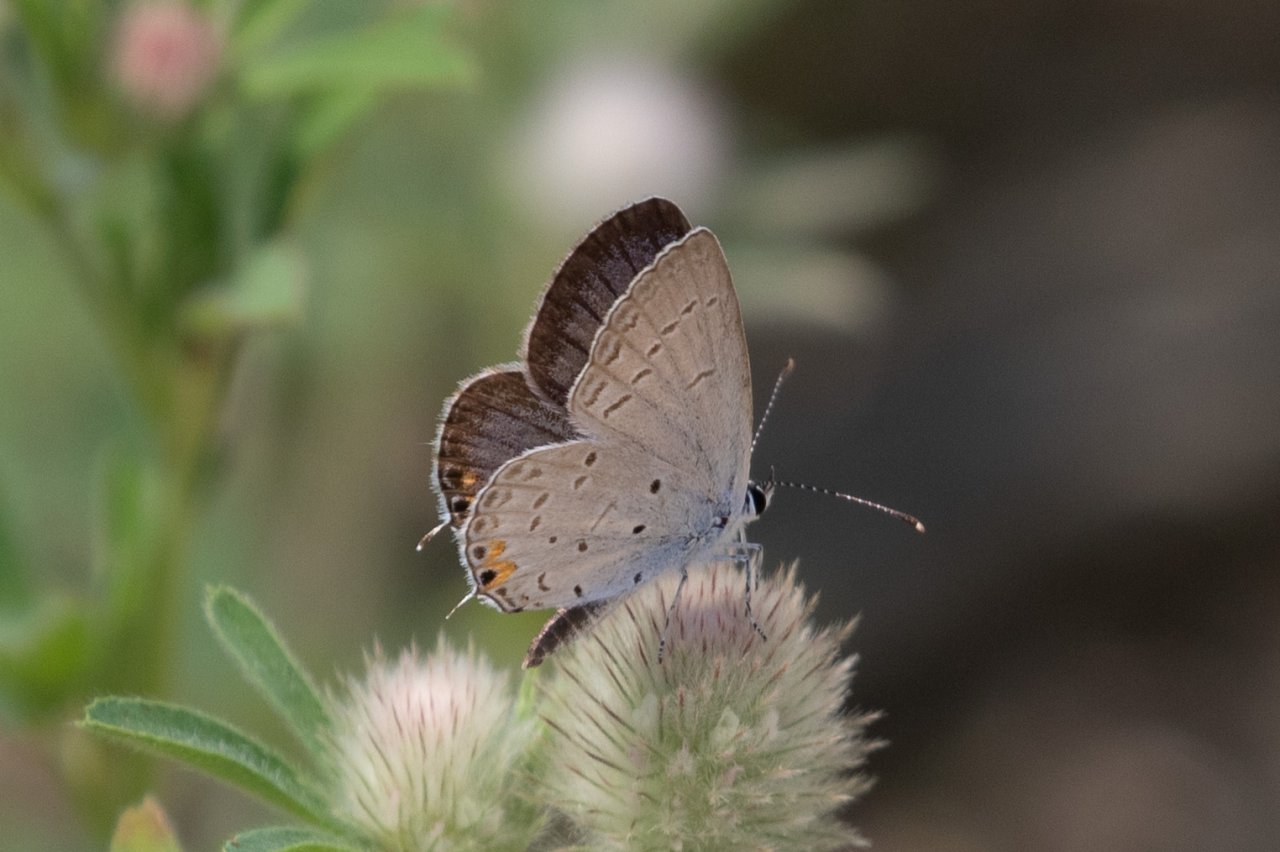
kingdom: Animalia
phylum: Arthropoda
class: Insecta
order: Lepidoptera
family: Lycaenidae
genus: Elkalyce
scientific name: Elkalyce comyntas
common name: Eastern Tailed-Blue
